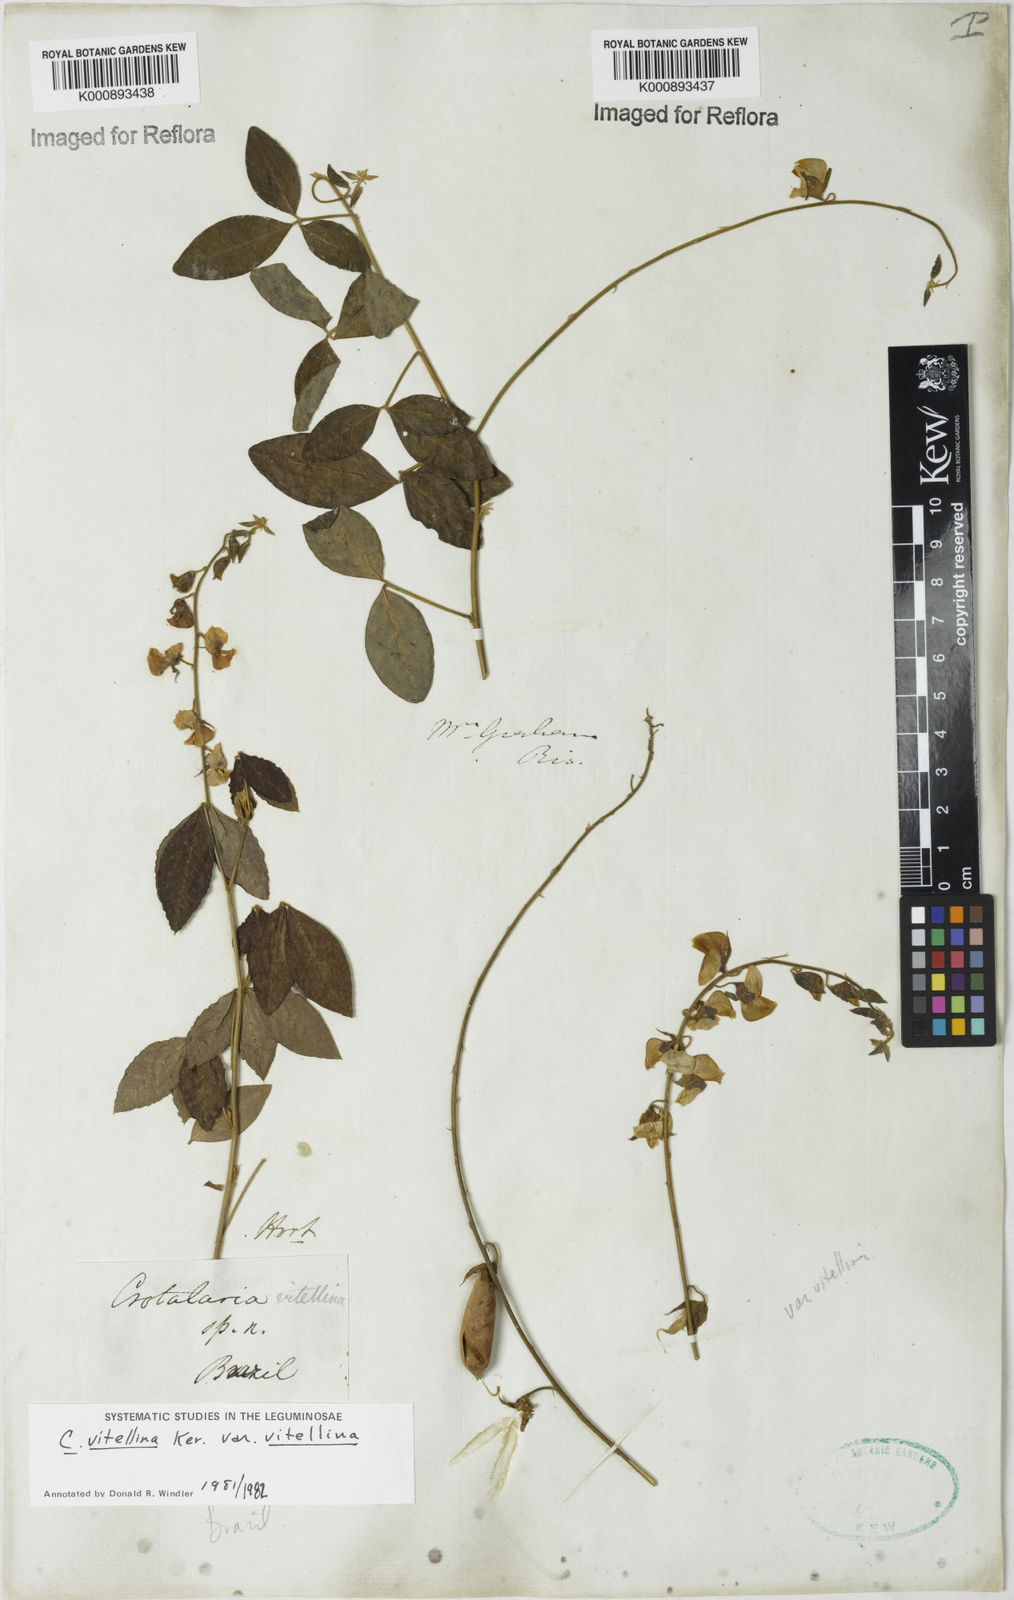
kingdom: Plantae
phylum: Tracheophyta
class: Magnoliopsida
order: Fabales
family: Fabaceae
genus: Crotalaria
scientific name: Crotalaria vitellina
